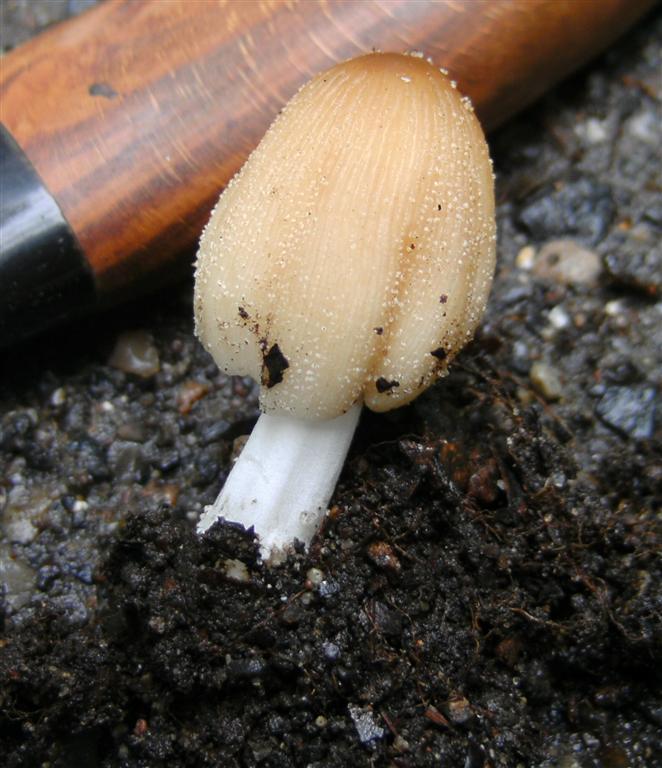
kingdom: Fungi
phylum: Basidiomycota
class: Agaricomycetes
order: Agaricales
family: Psathyrellaceae
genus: Coprinellus
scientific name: Coprinellus domesticus
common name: hus-blækhat
